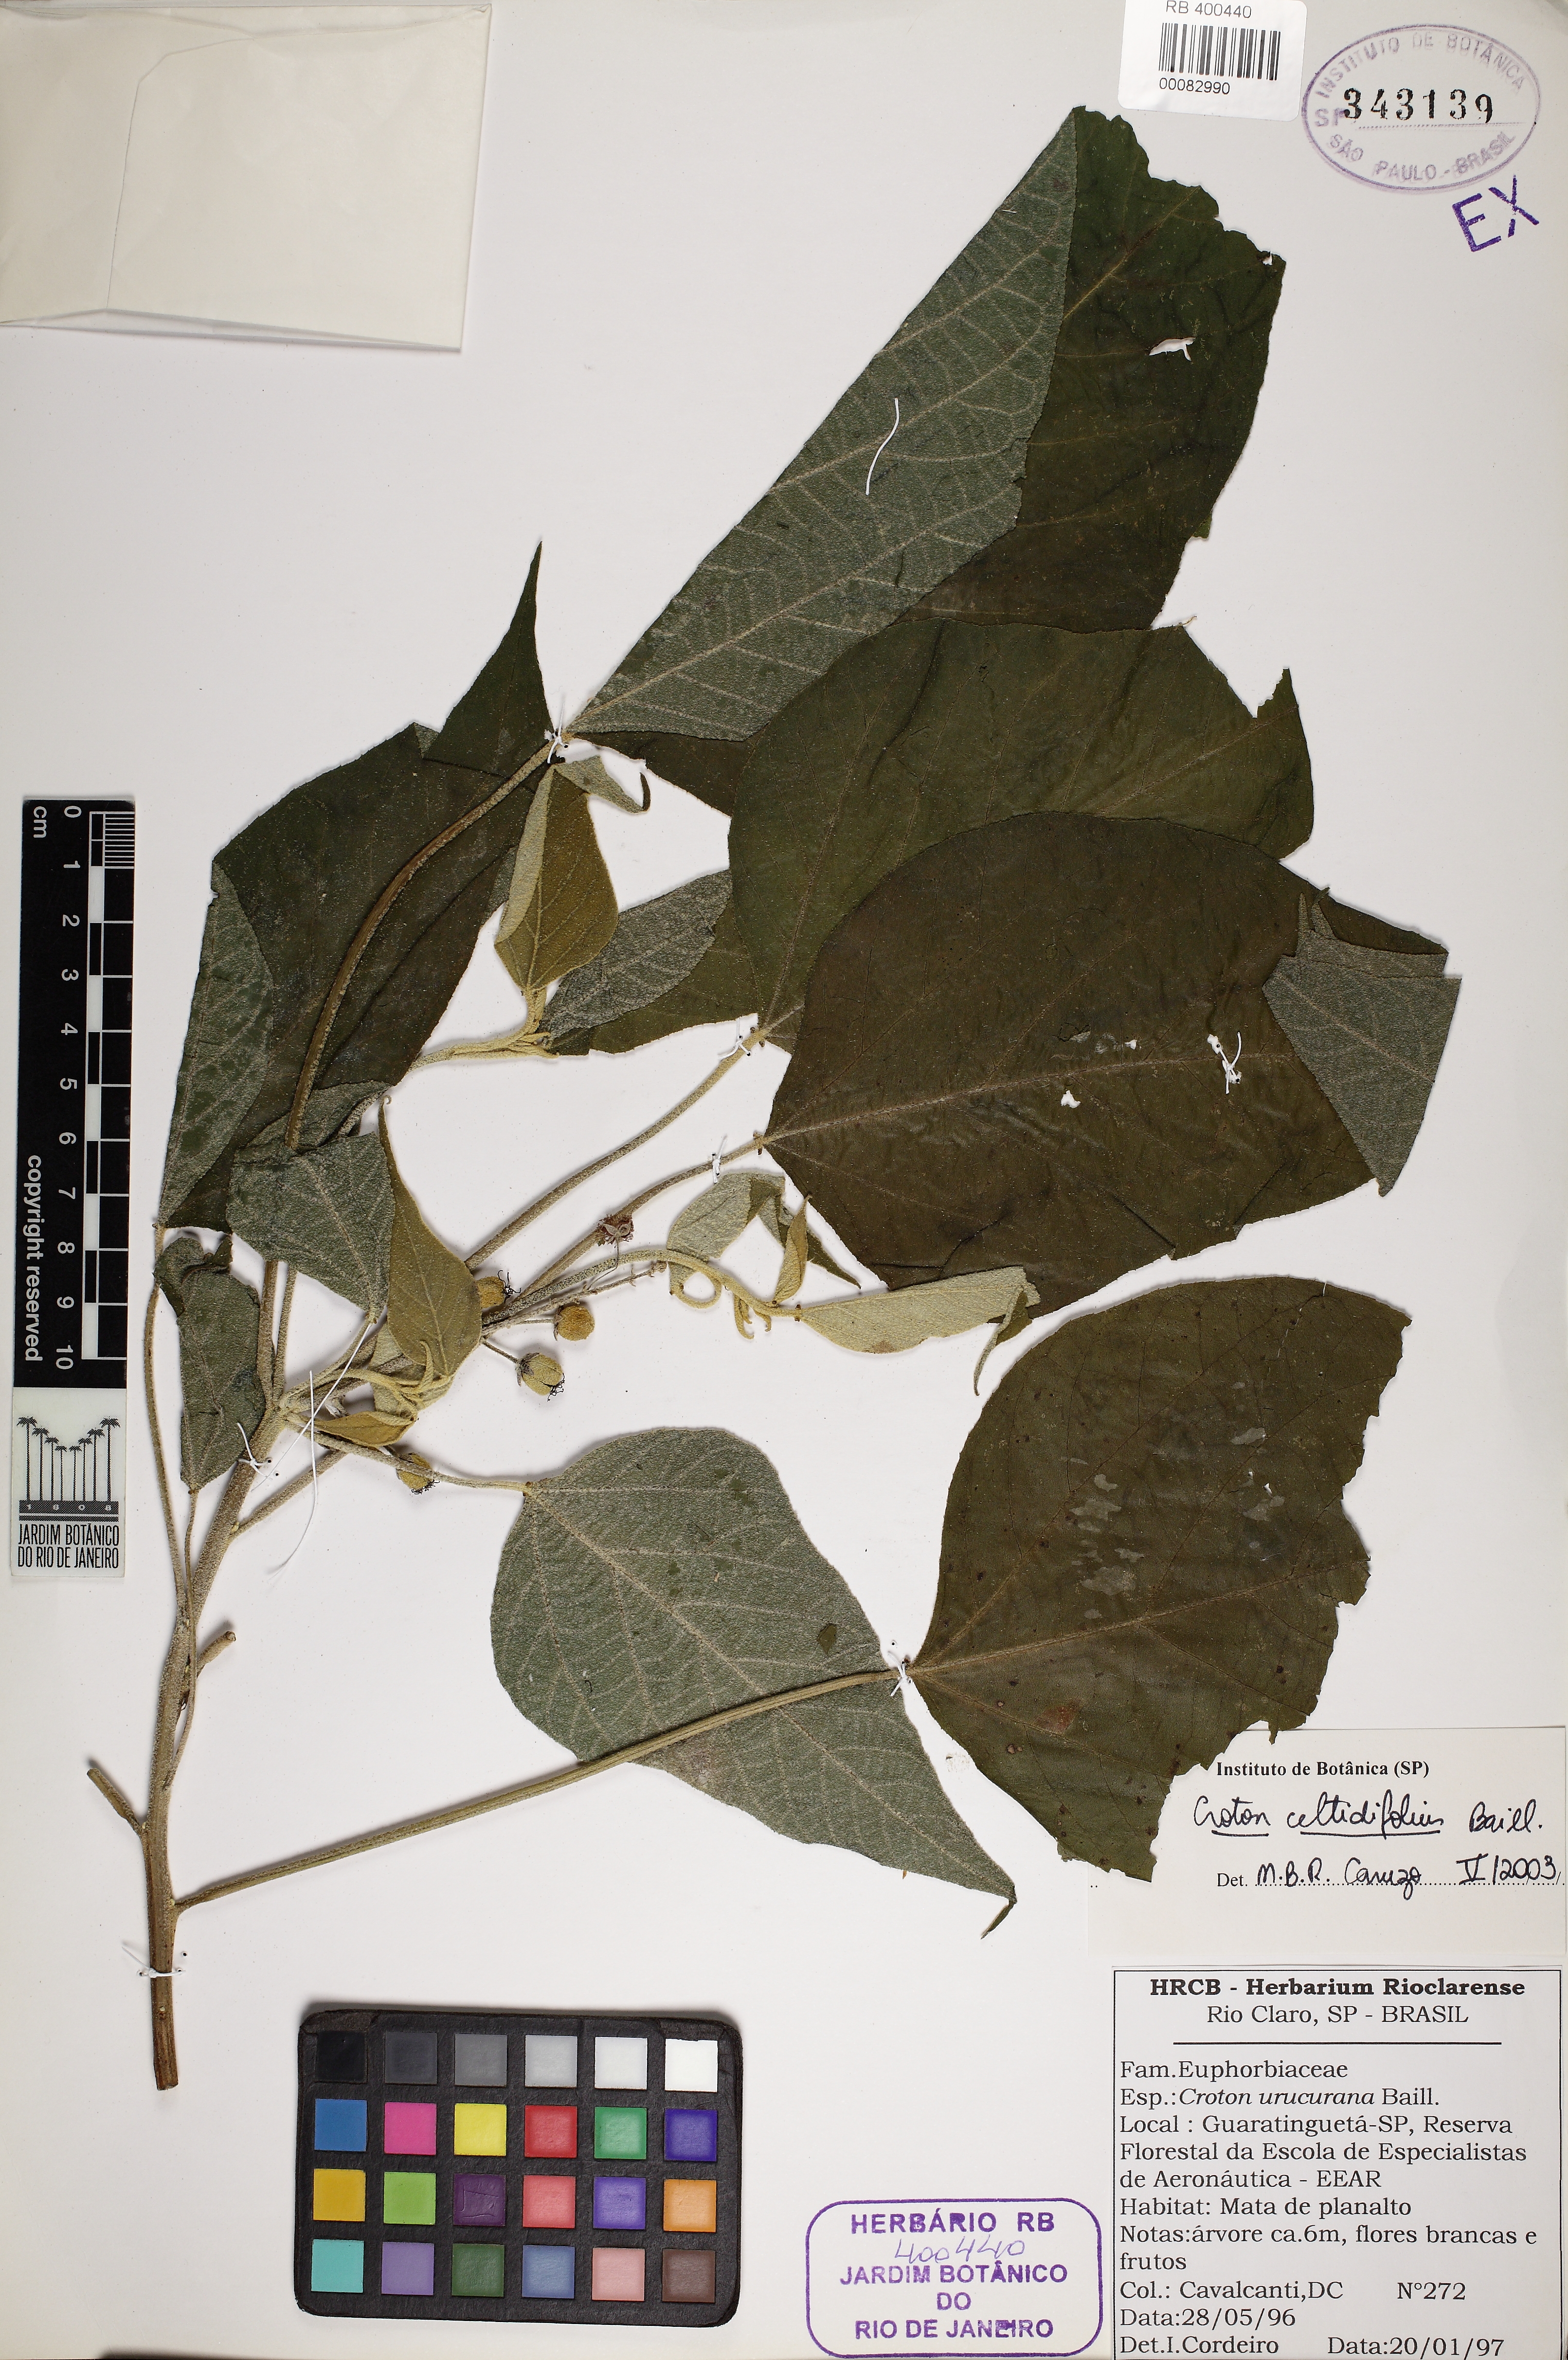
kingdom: Plantae
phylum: Tracheophyta
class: Magnoliopsida
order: Malpighiales
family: Euphorbiaceae
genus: Croton
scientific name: Croton celtidifolius
